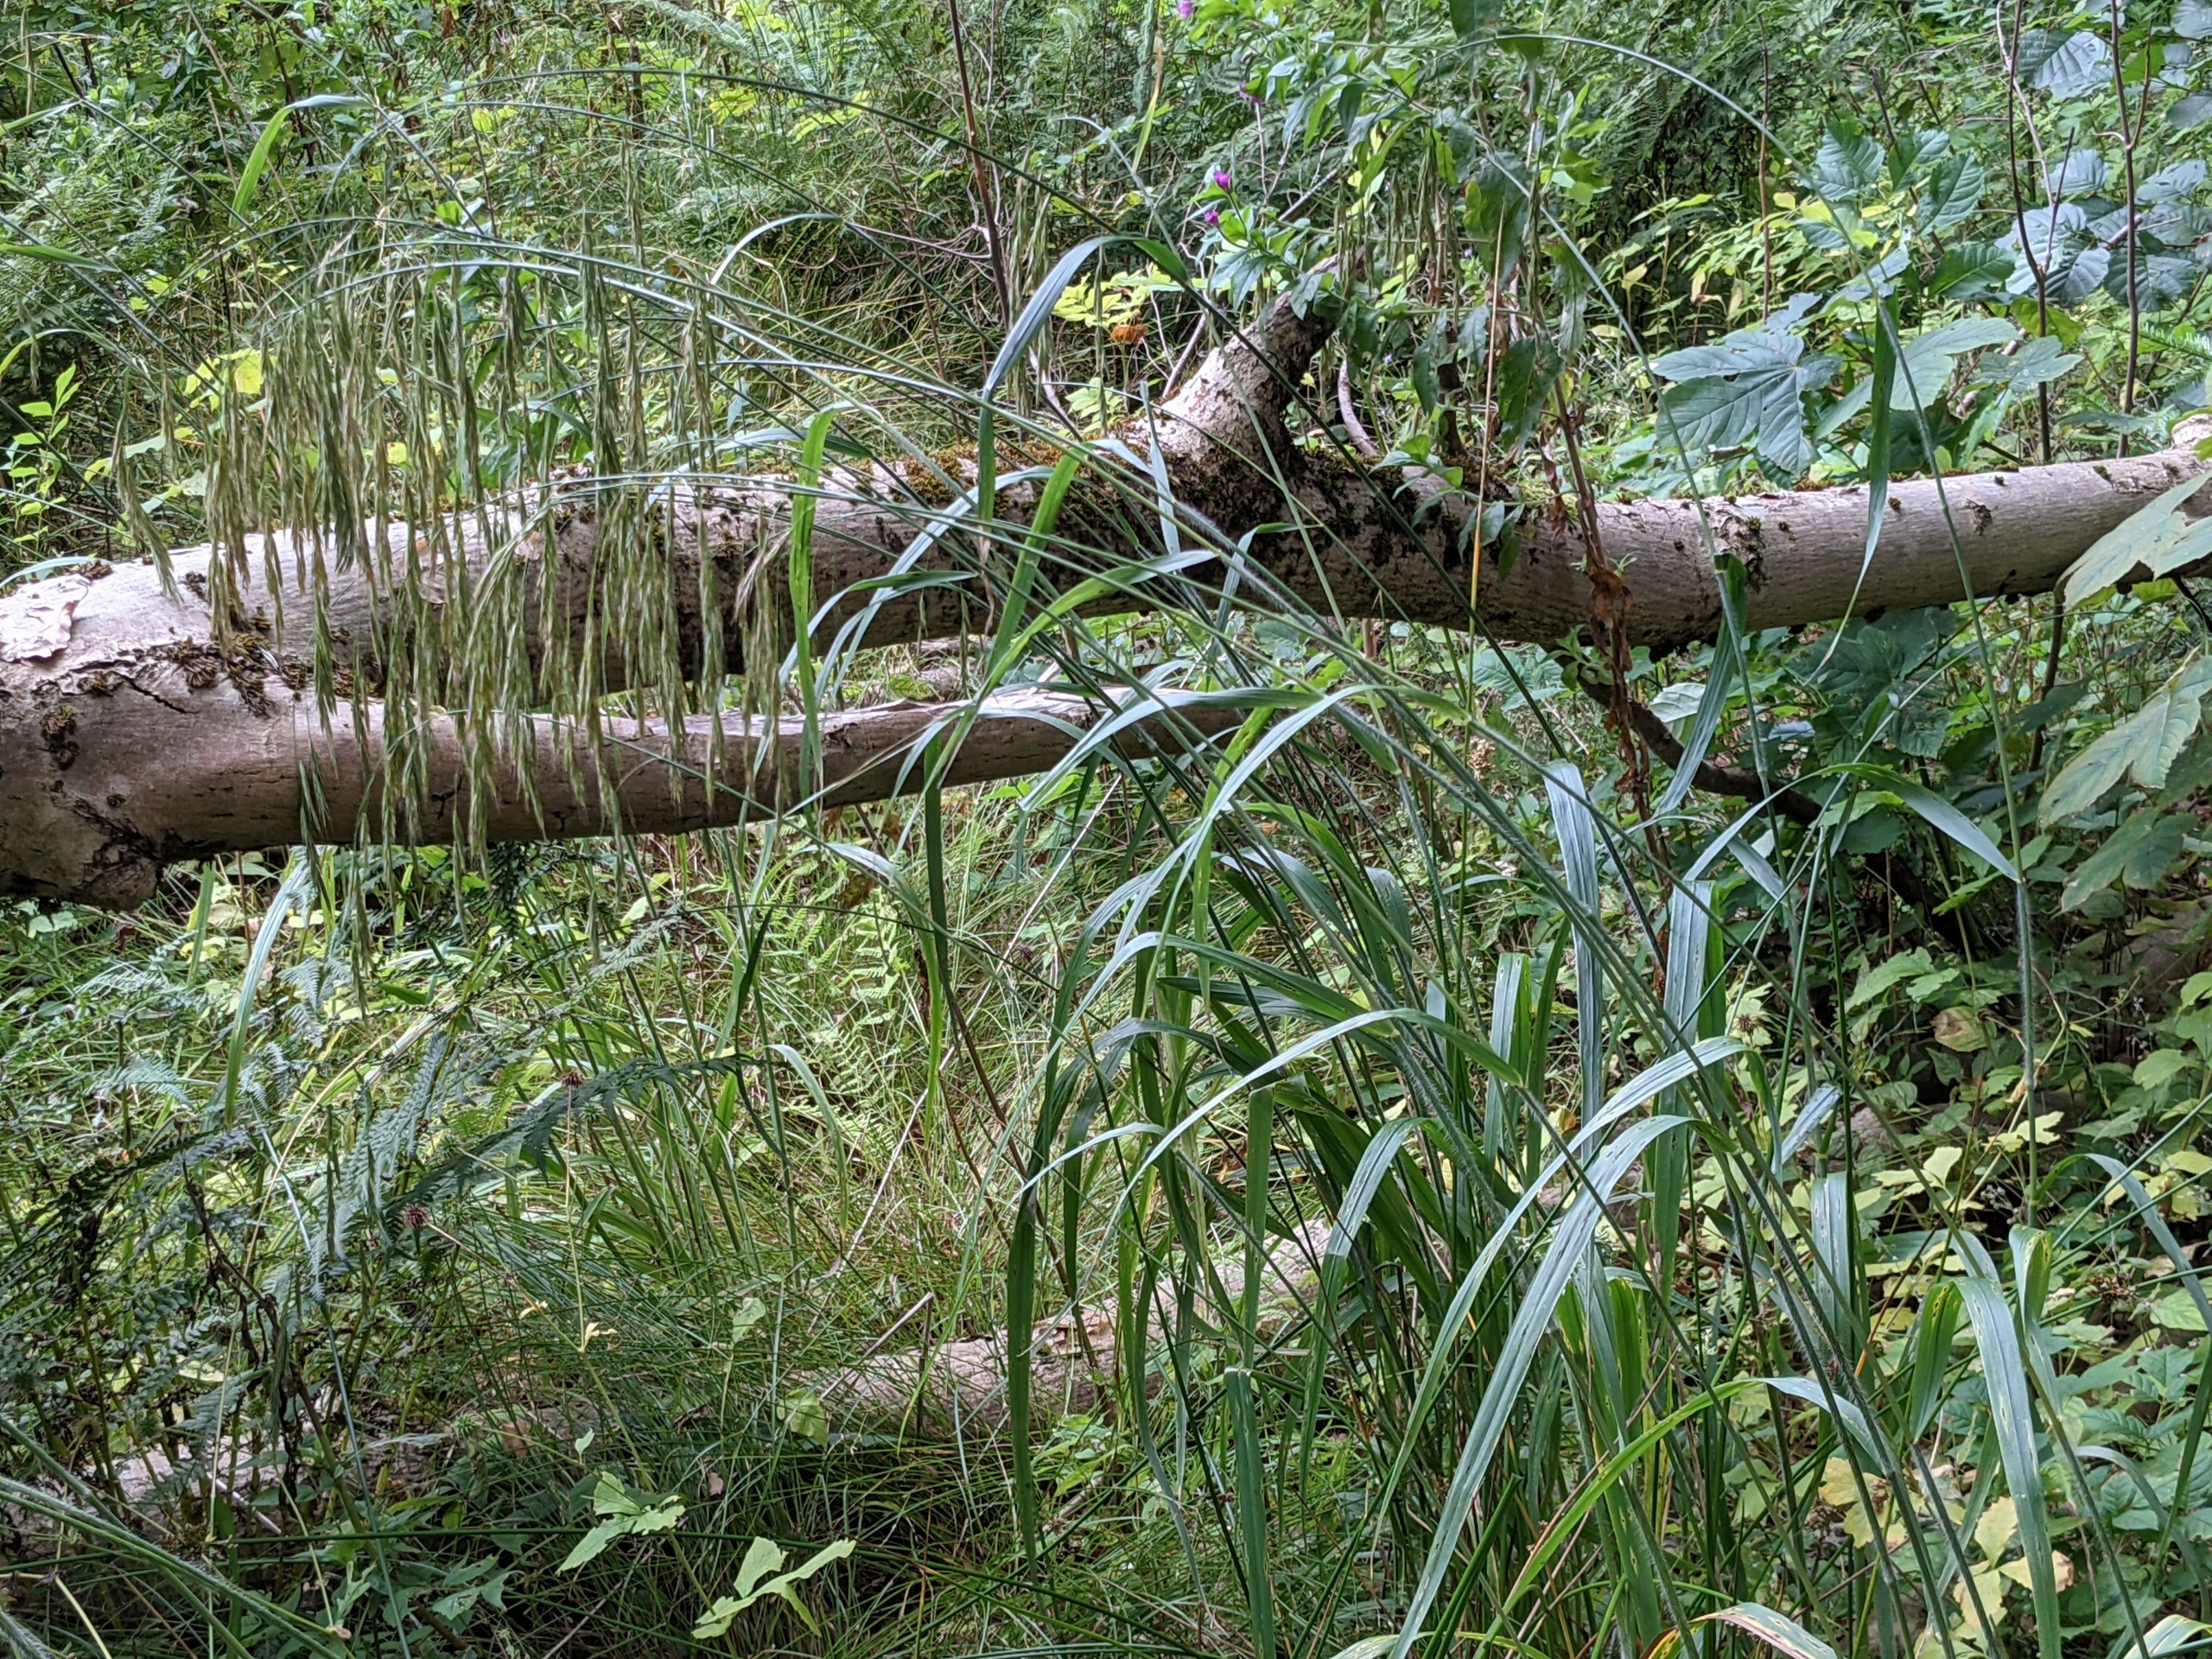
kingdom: Plantae
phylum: Tracheophyta
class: Liliopsida
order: Poales
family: Poaceae
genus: Bromus
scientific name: Bromus ramosus
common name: Sildig skov-hejre
